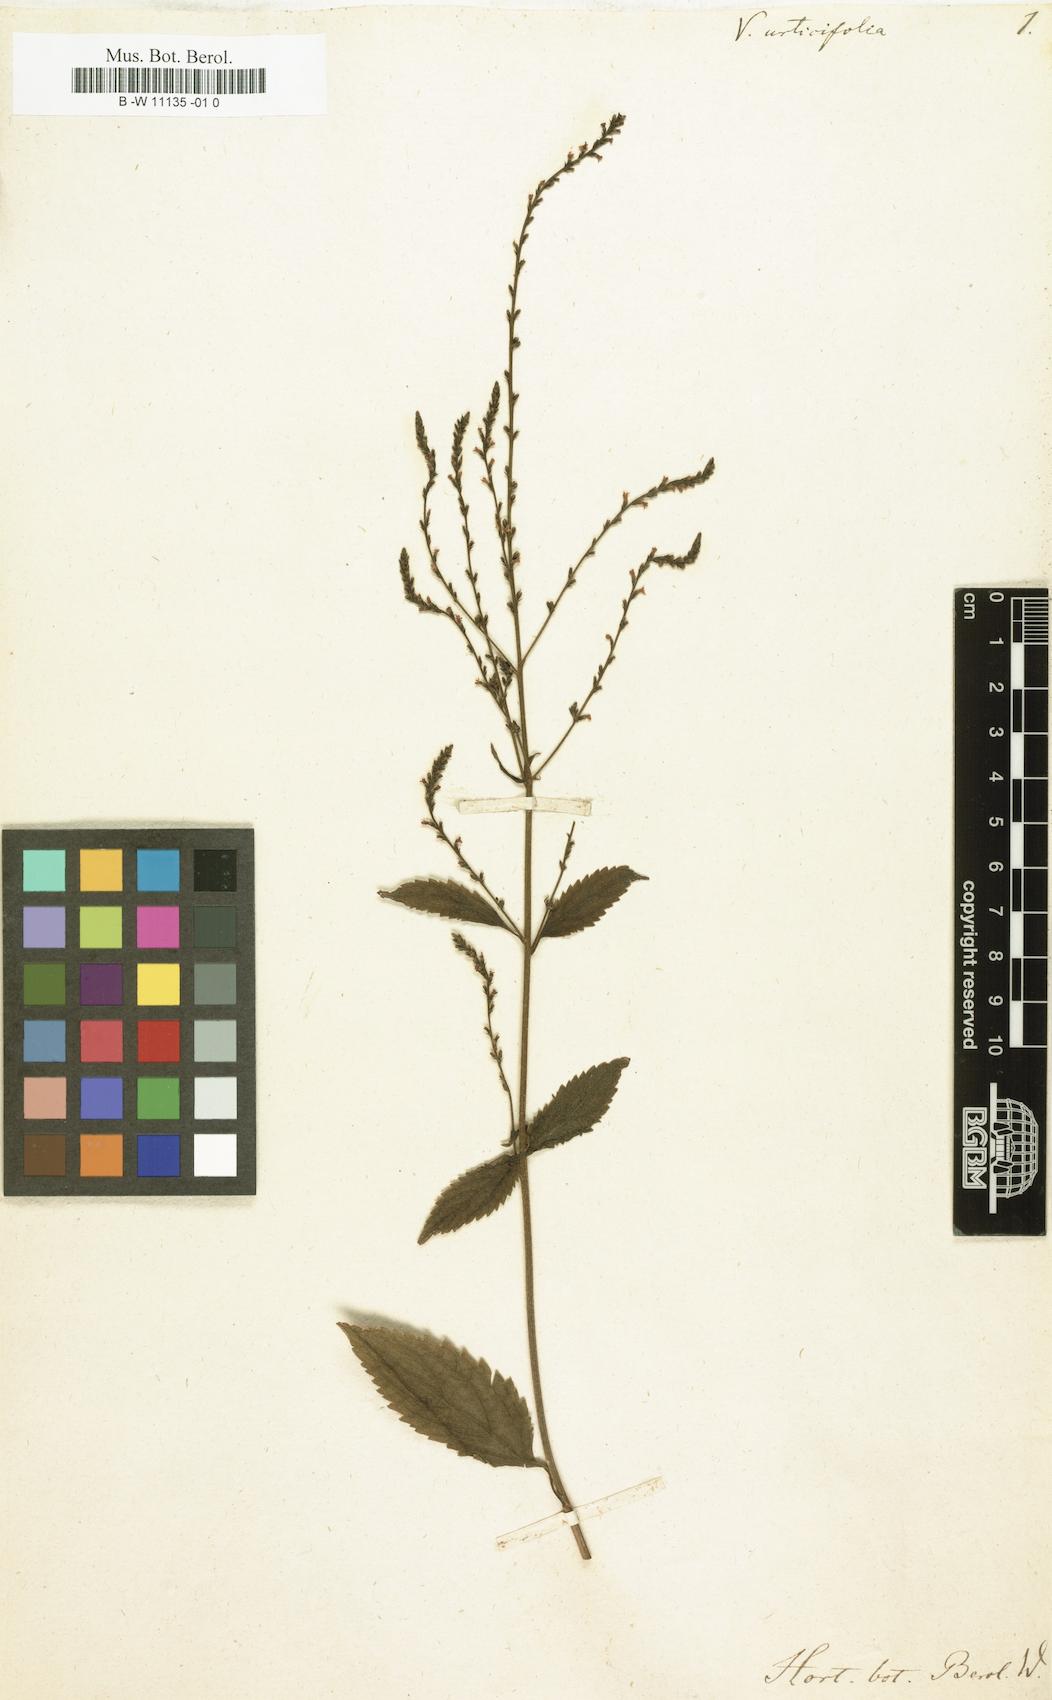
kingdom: Plantae
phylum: Tracheophyta
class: Magnoliopsida
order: Lamiales
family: Verbenaceae
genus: Verbena
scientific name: Verbena urticifolia
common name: Nettle-leaved vervain
